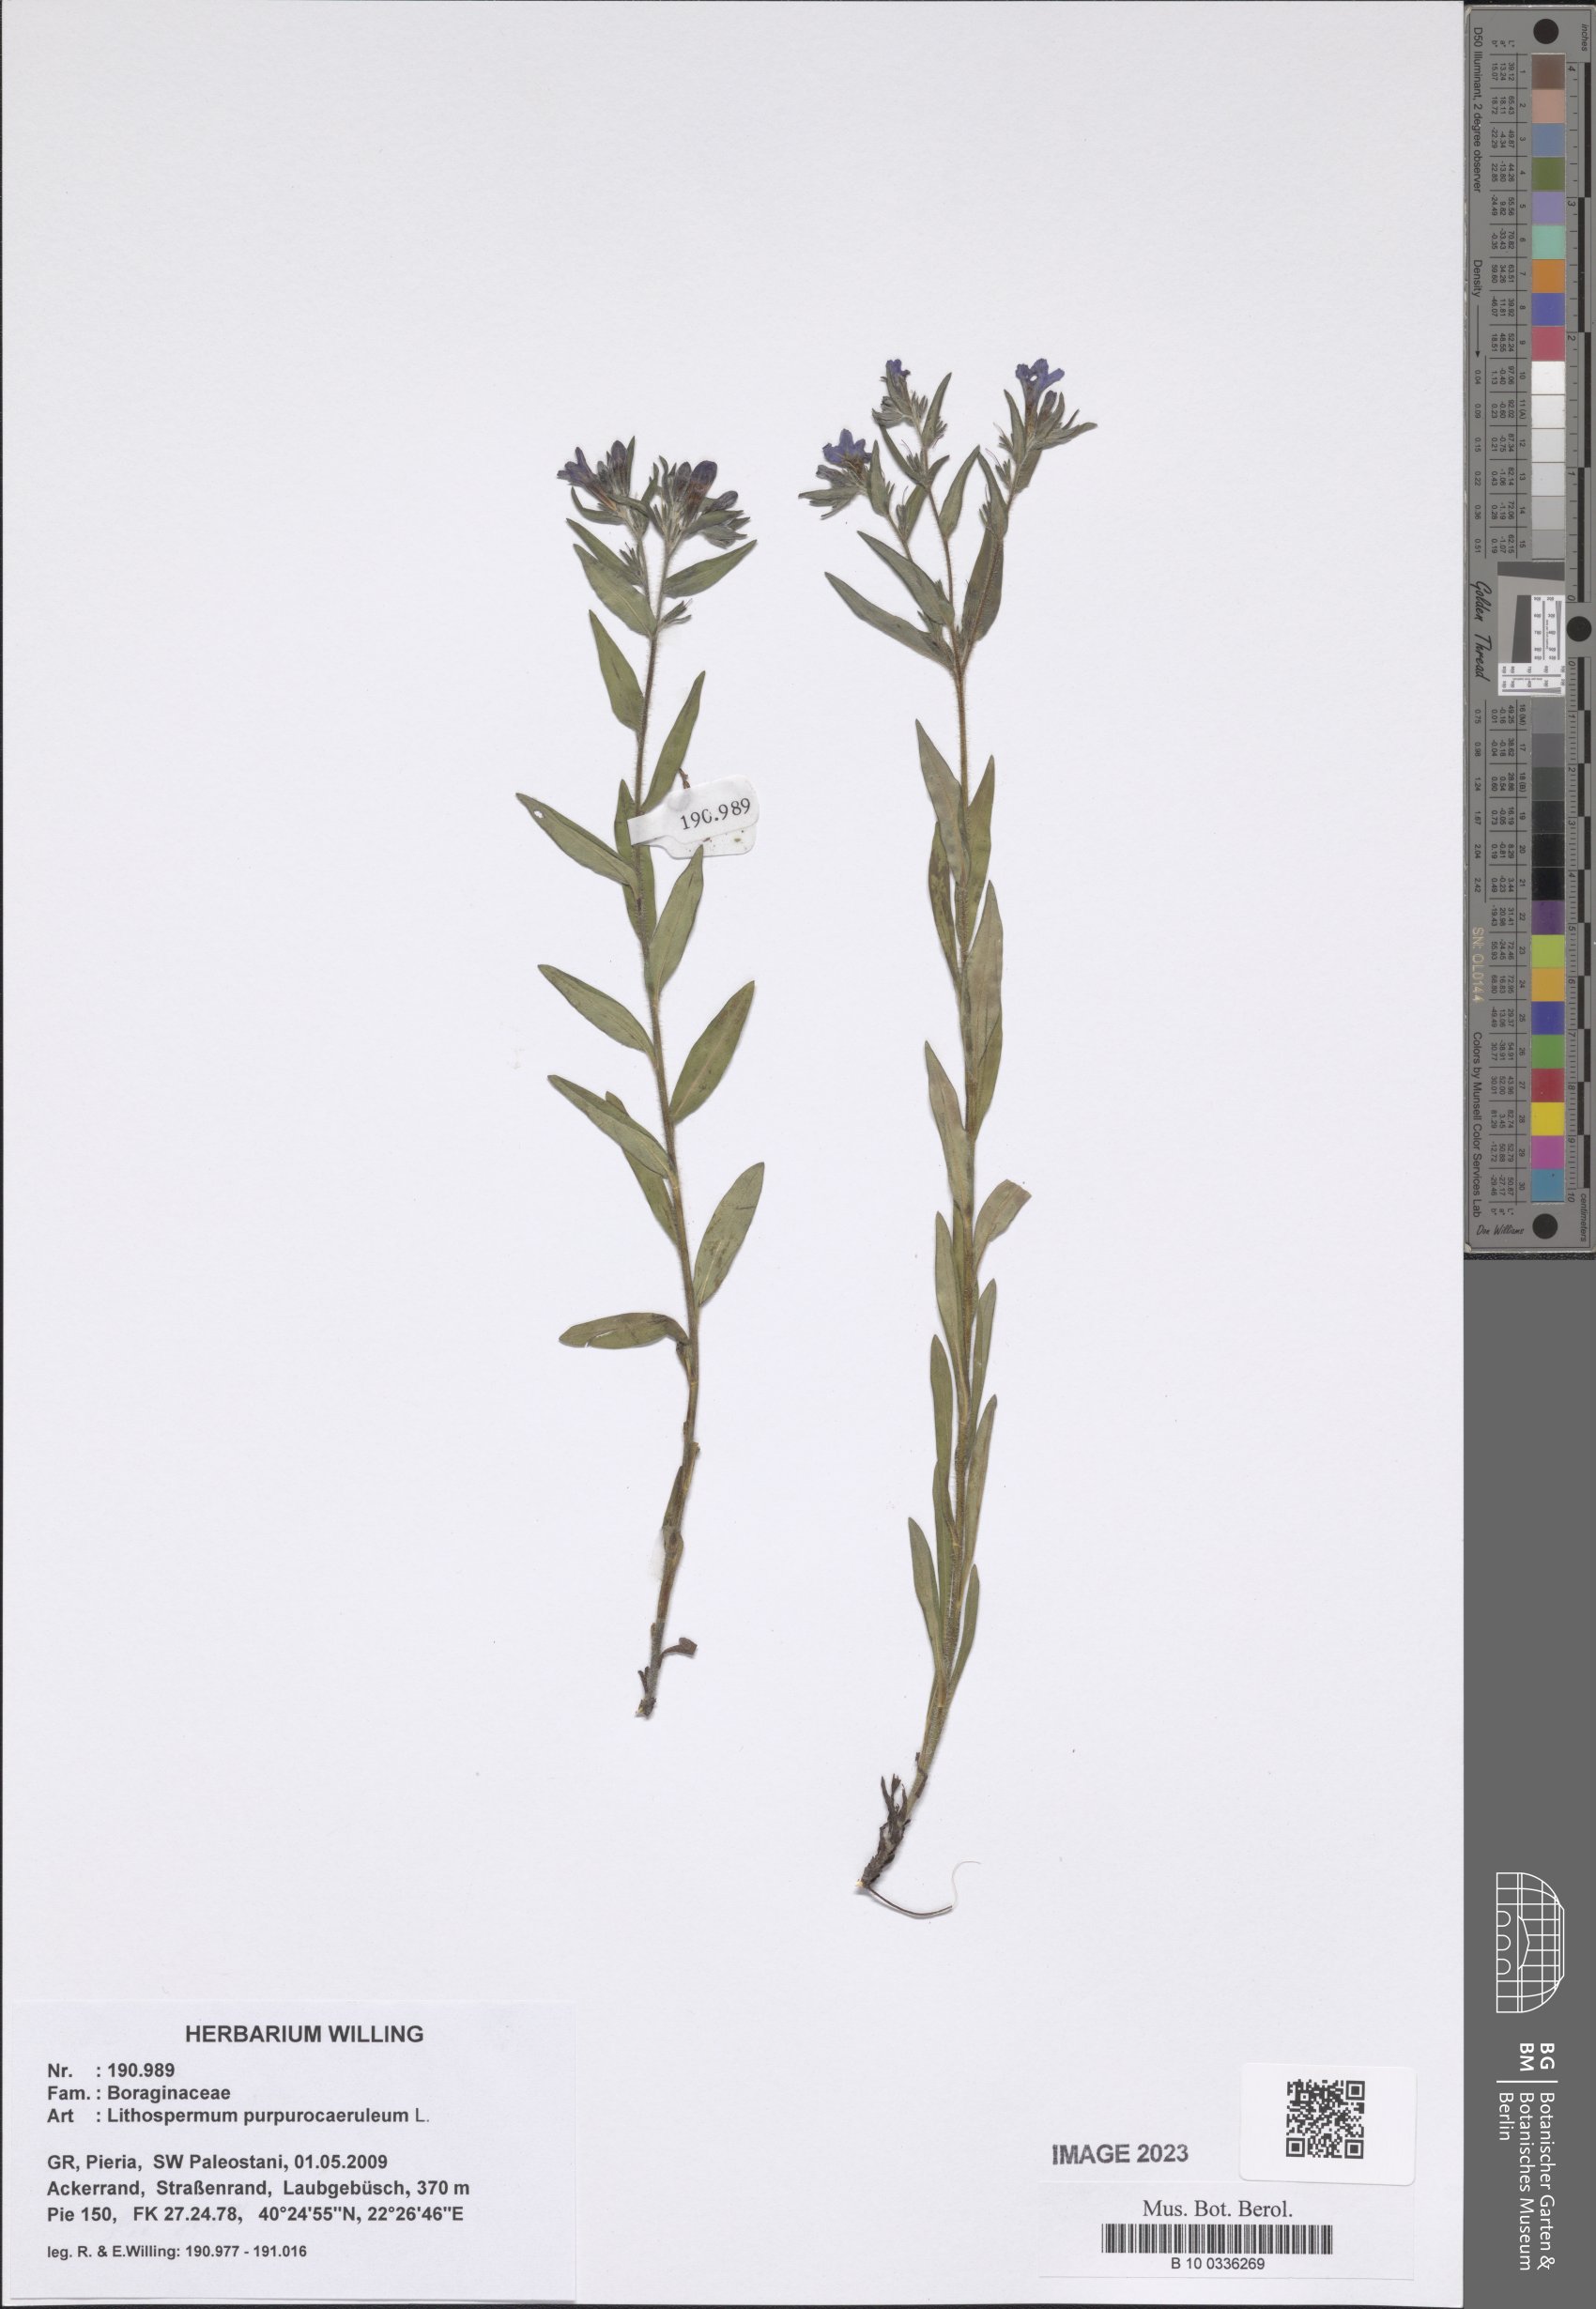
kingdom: Plantae
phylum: Tracheophyta
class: Magnoliopsida
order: Boraginales
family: Boraginaceae
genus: Aegonychon
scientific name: Aegonychon purpurocaeruleum
